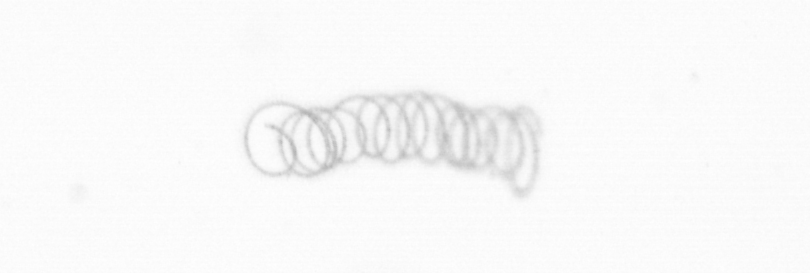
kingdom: Chromista
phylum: Ochrophyta
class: Bacillariophyceae
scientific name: Bacillariophyceae
